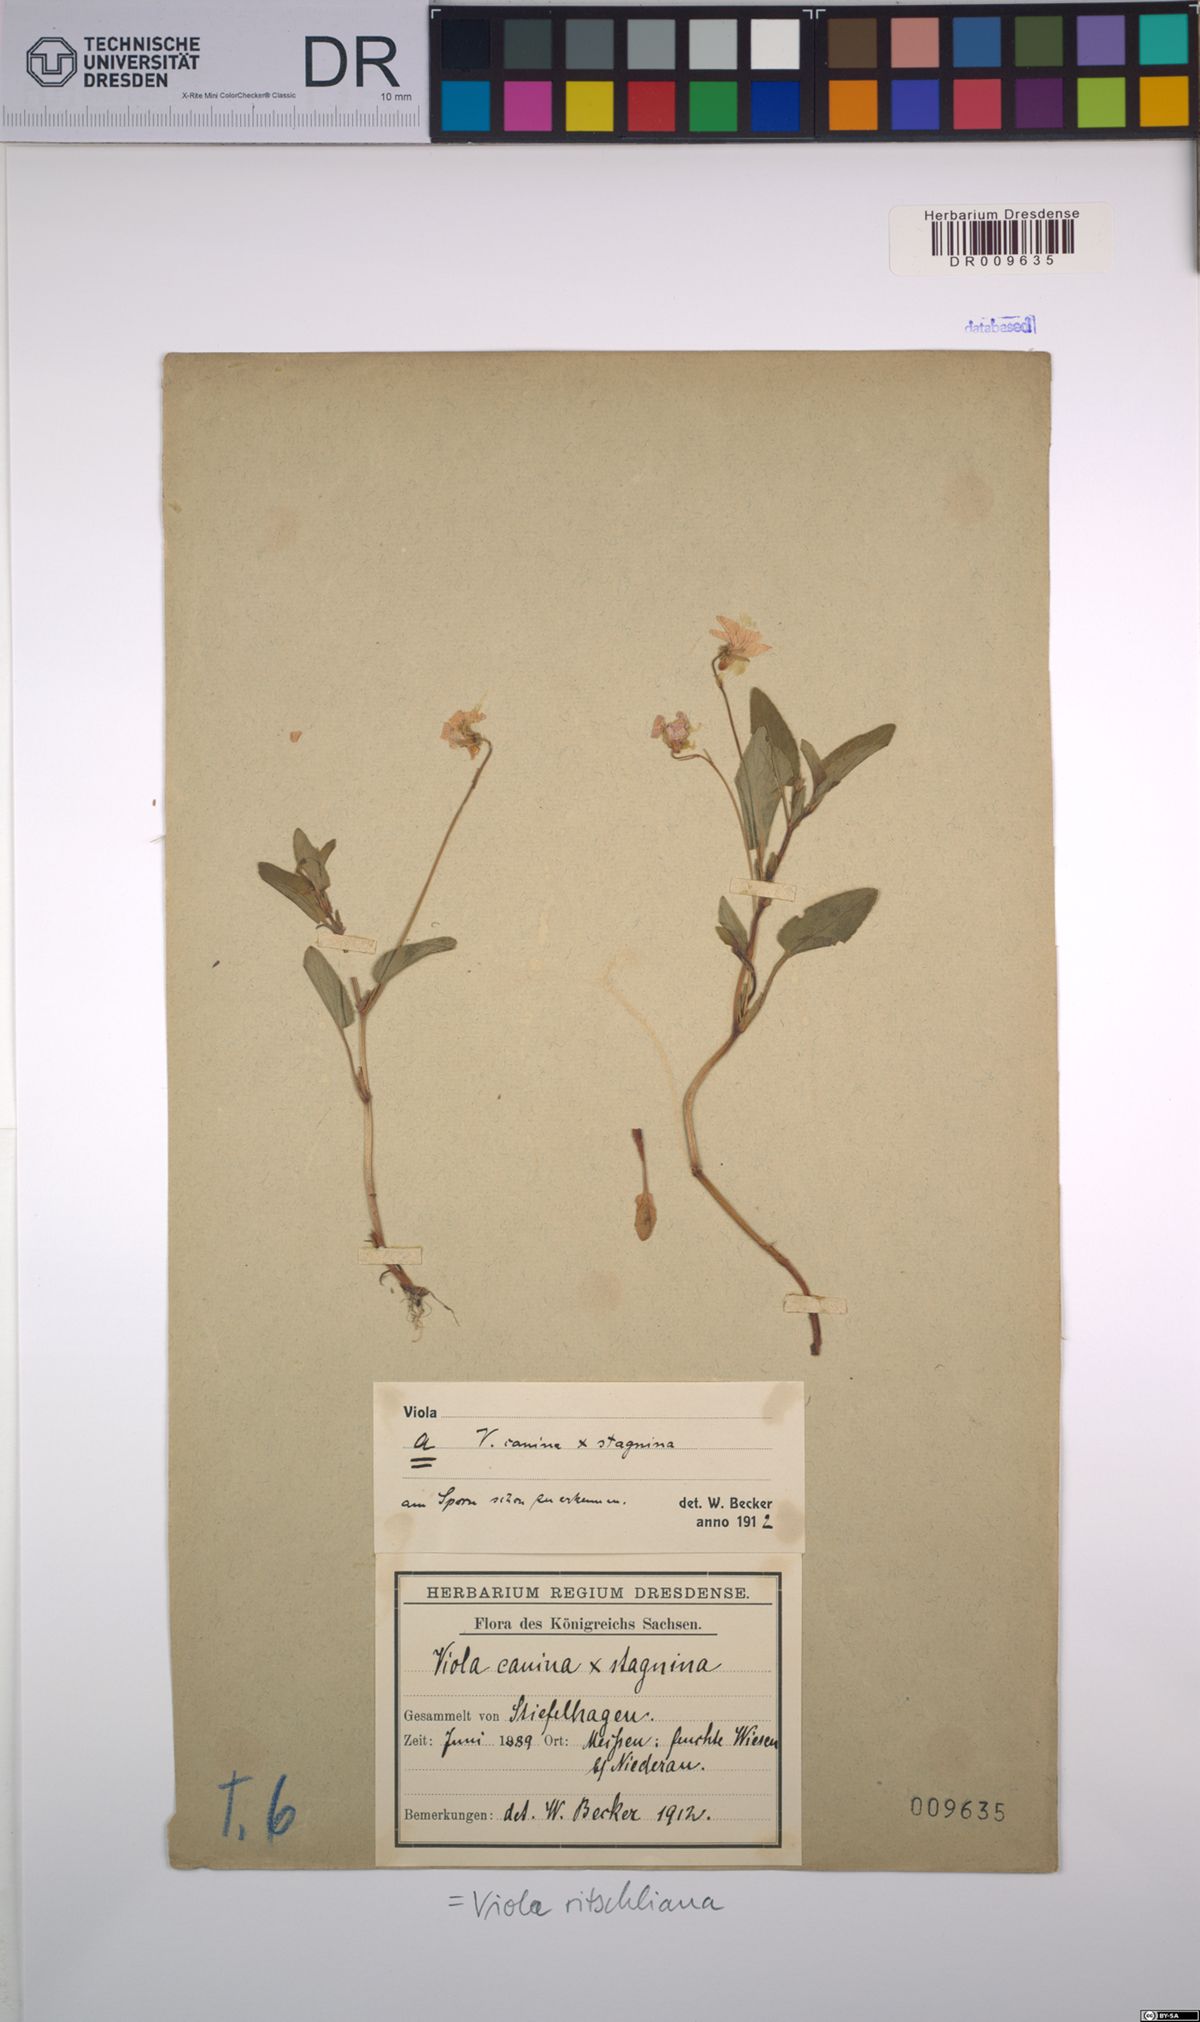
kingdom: Plantae
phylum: Tracheophyta
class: Magnoliopsida
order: Malpighiales
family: Violaceae
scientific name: Violaceae
